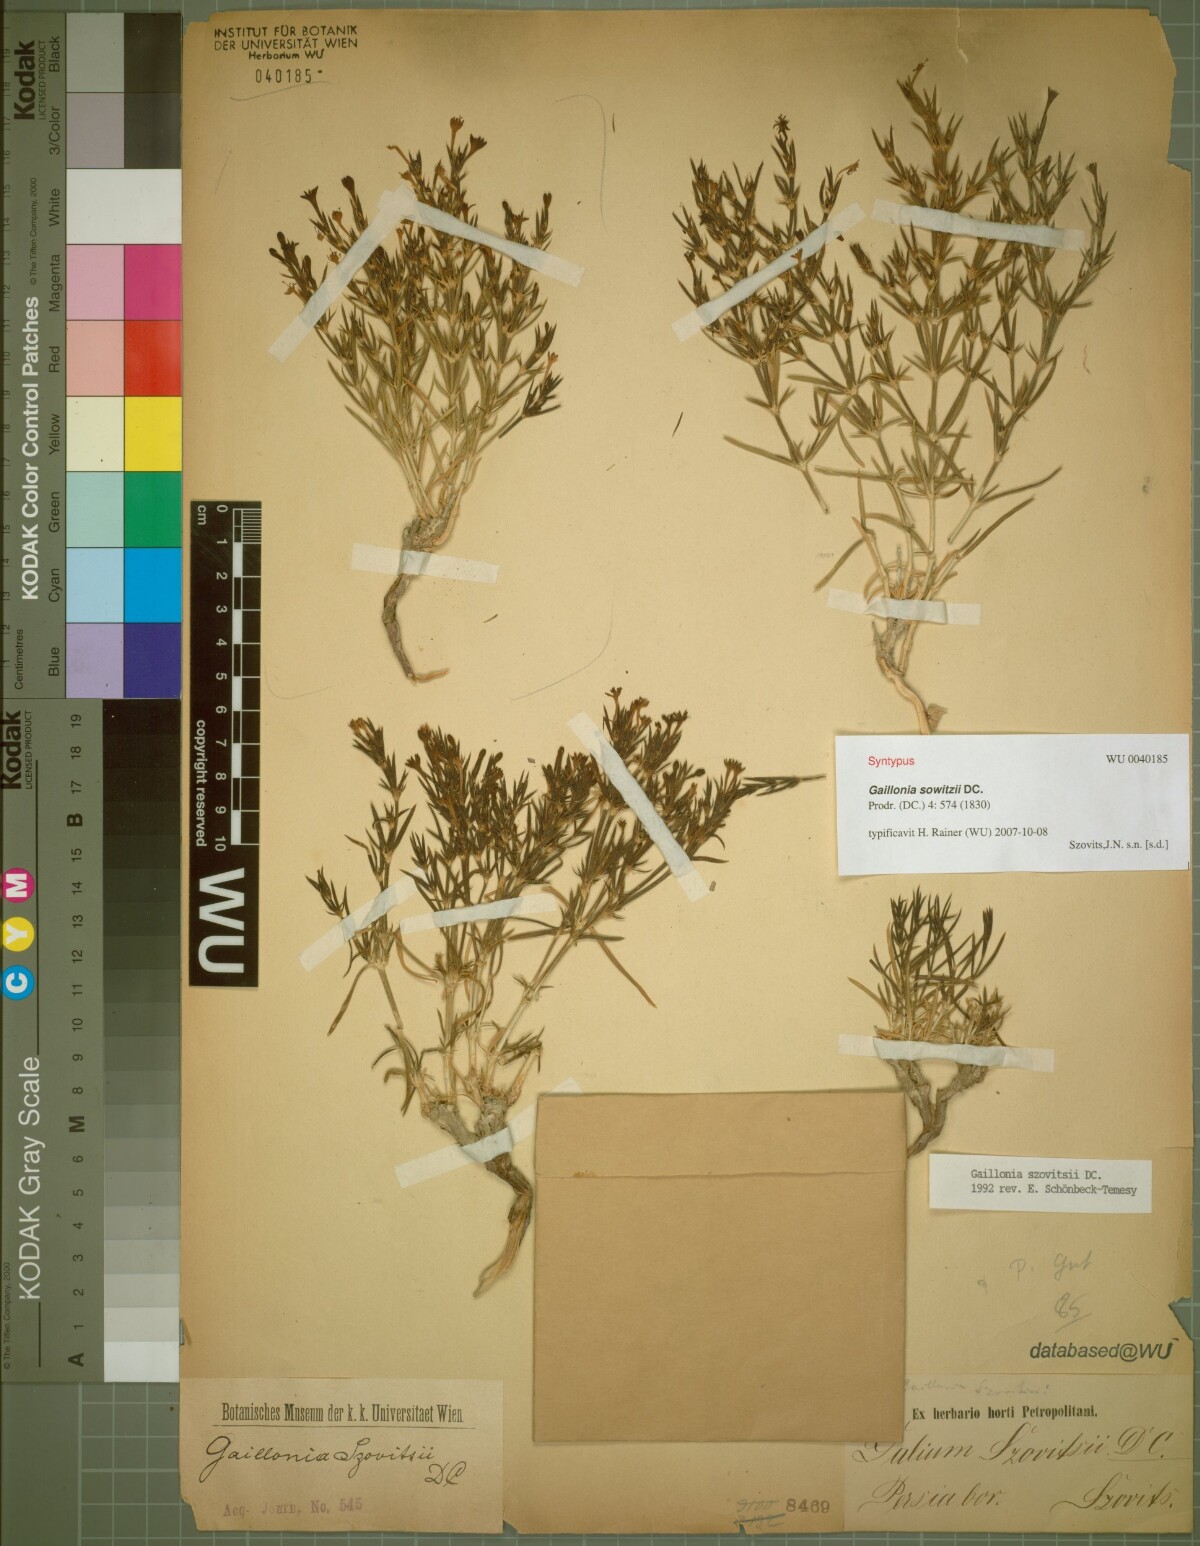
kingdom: Plantae
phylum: Tracheophyta
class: Magnoliopsida
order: Gentianales
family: Rubiaceae
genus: Gaillonia
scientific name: Gaillonia
